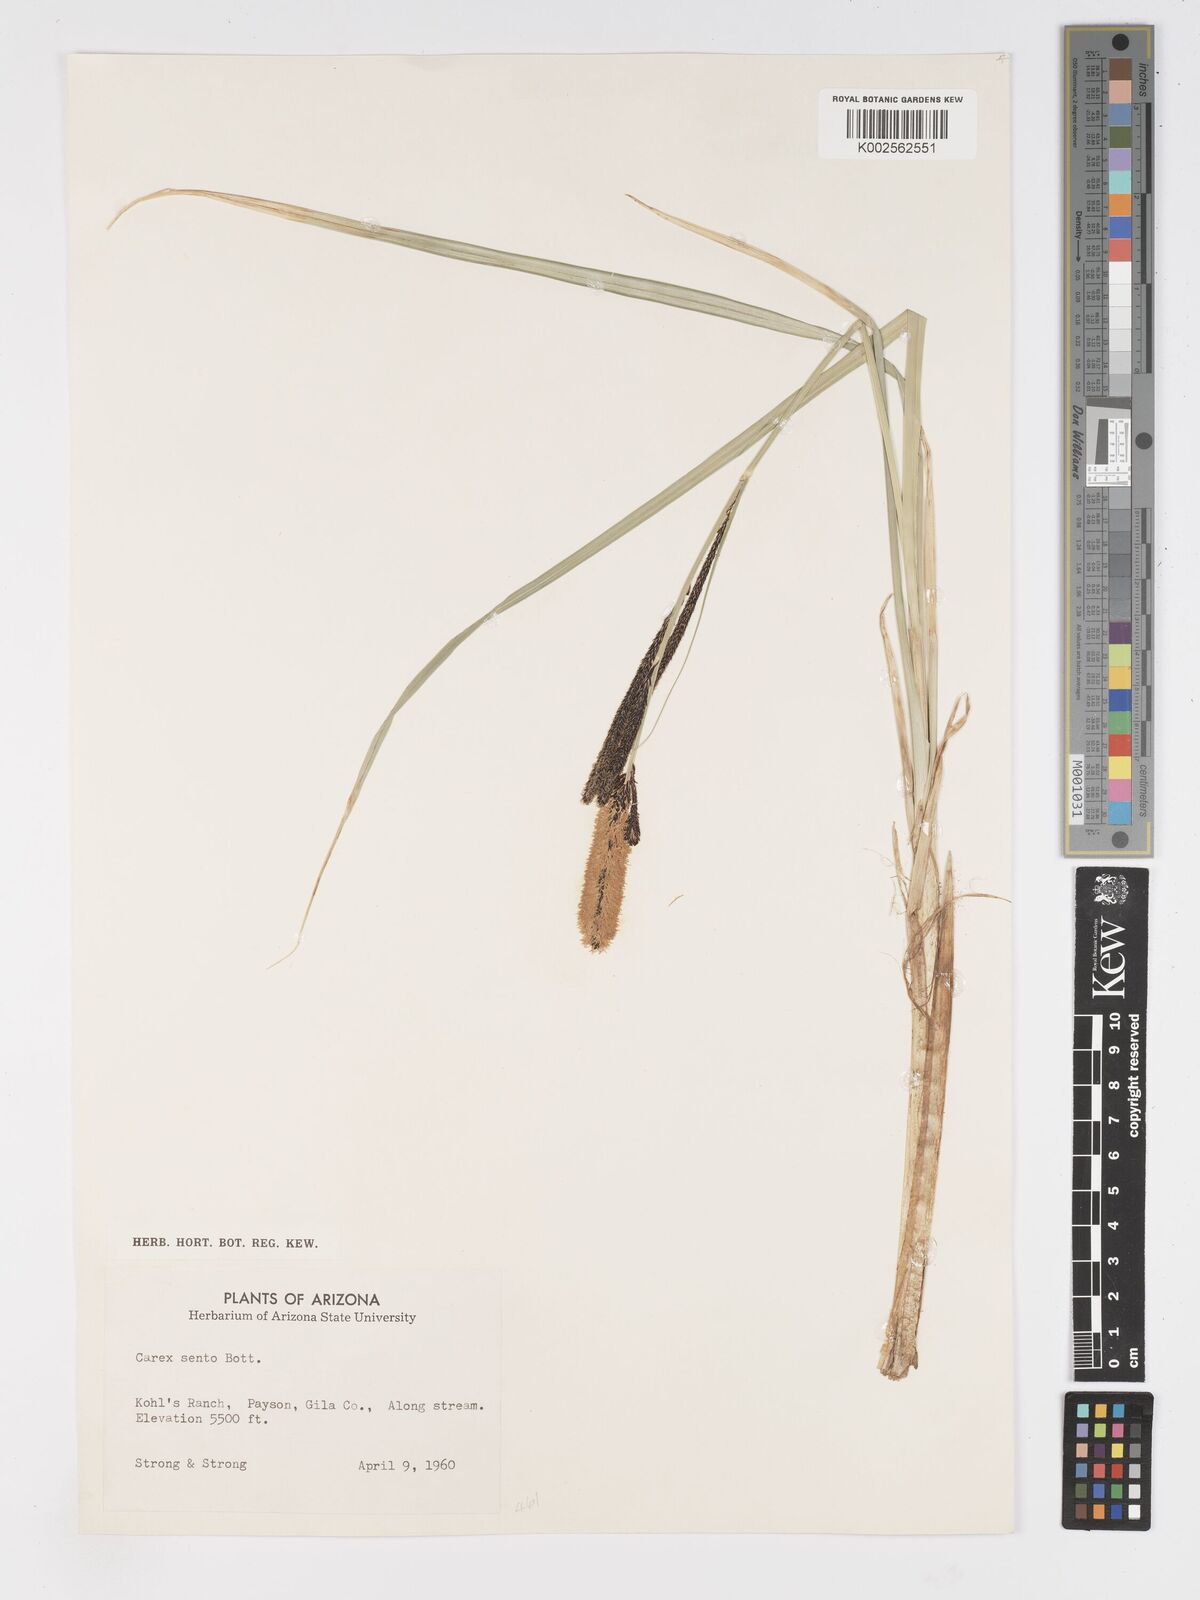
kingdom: Plantae
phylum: Tracheophyta
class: Liliopsida
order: Poales
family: Cyperaceae
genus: Carex
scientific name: Carex senta
